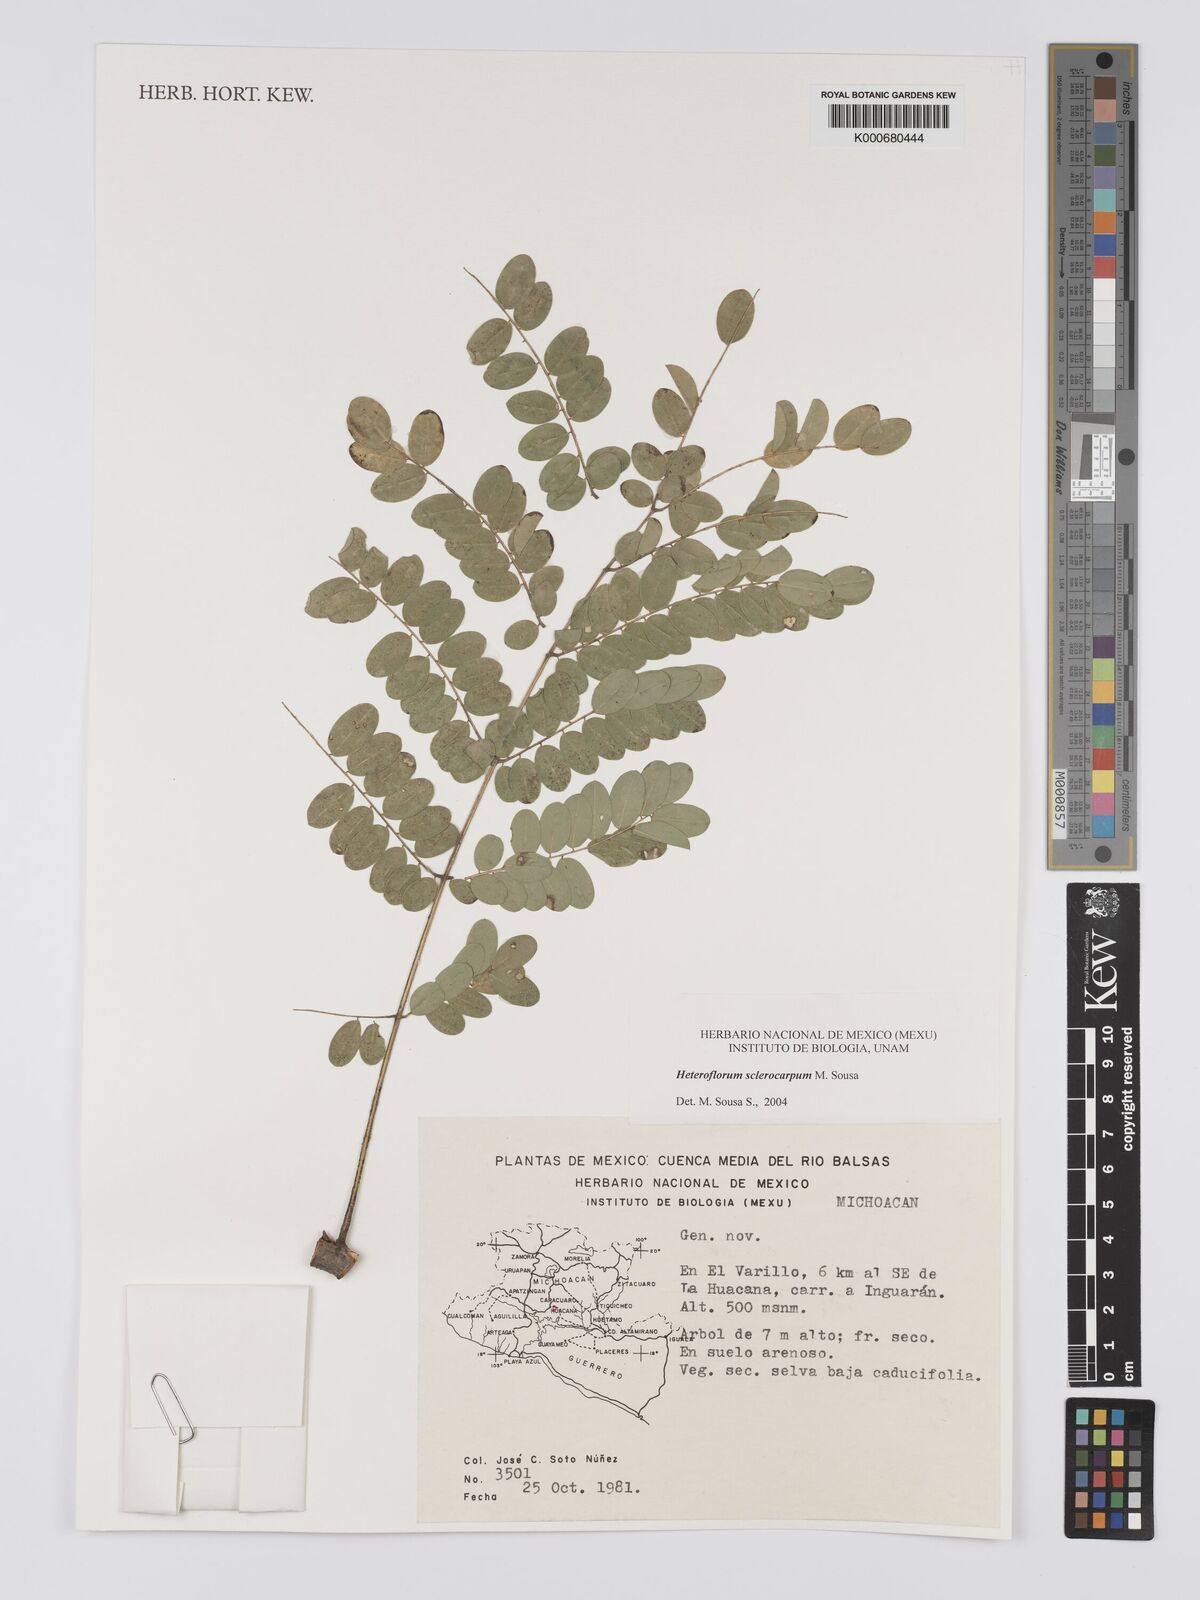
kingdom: Plantae
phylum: Tracheophyta
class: Magnoliopsida
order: Fabales
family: Fabaceae
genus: Heteroflorum
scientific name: Heteroflorum sclerocarpum
